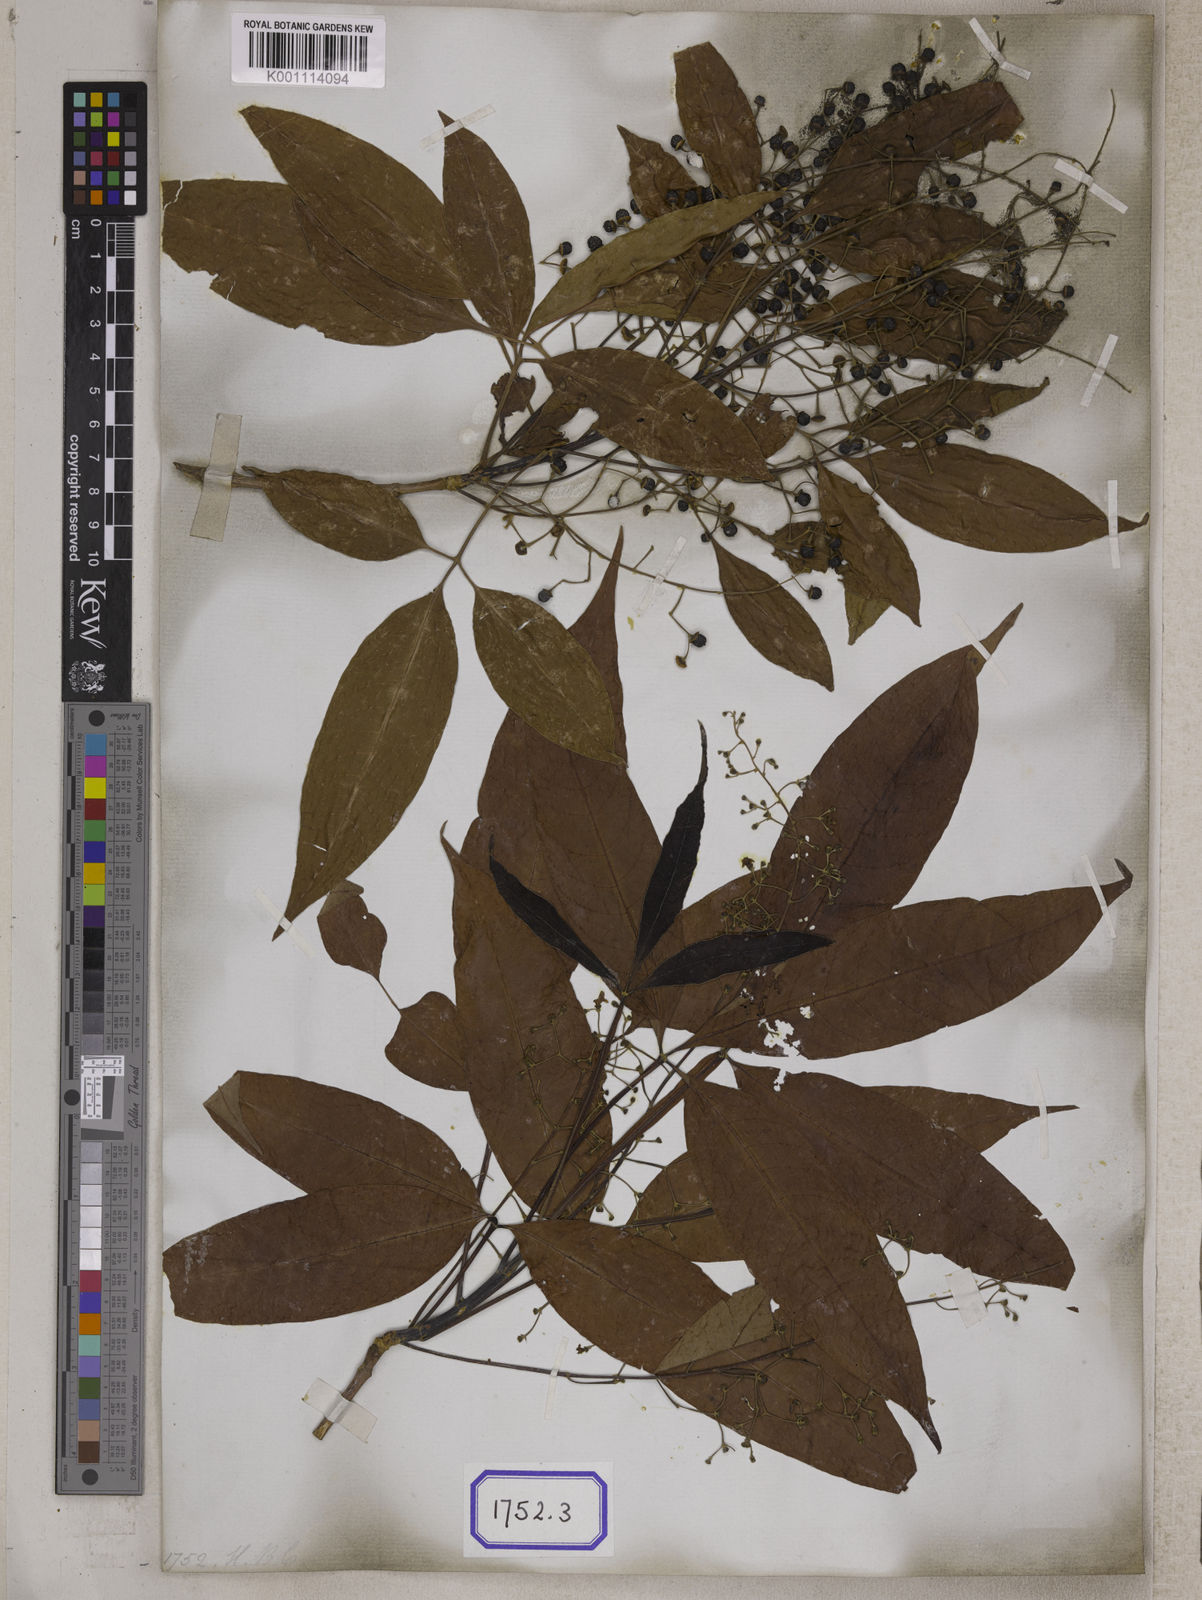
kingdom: Plantae
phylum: Tracheophyta
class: Magnoliopsida
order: Lamiales
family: Lamiaceae
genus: Vitex
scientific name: Vitex peduncularis
